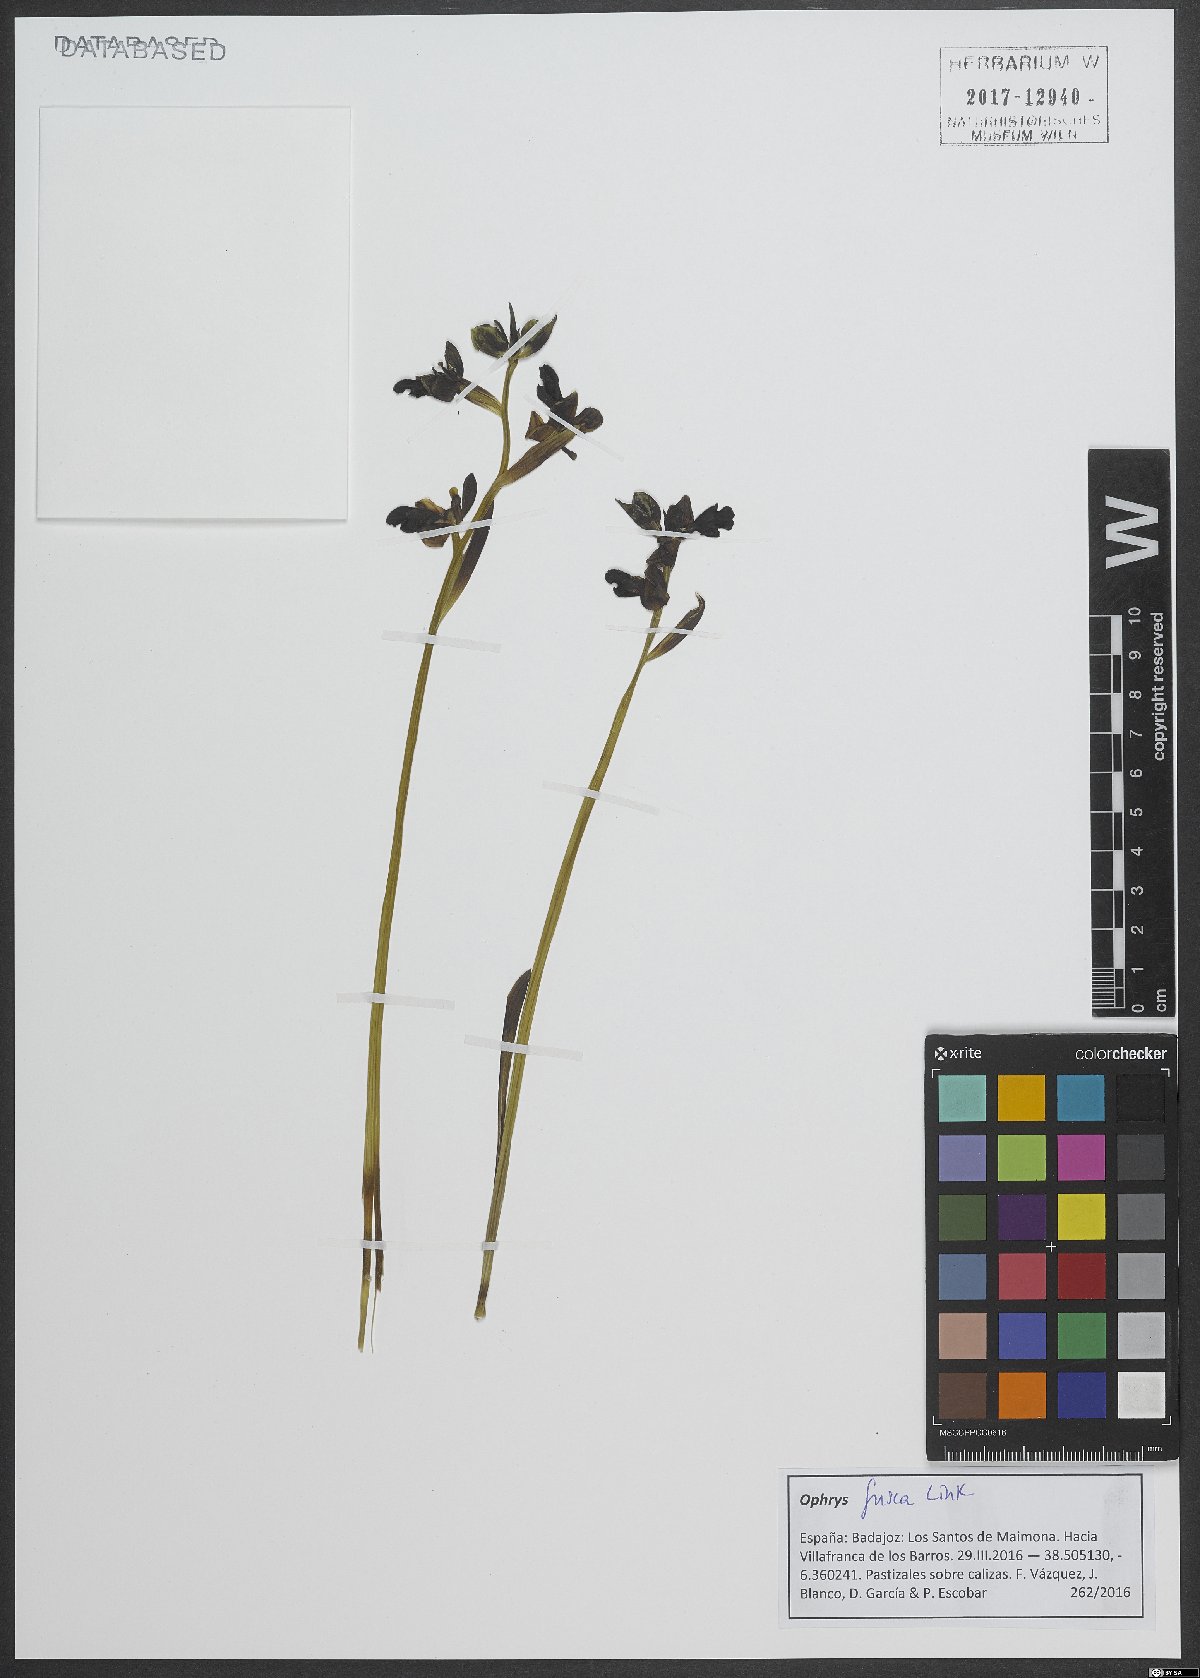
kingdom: Plantae
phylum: Tracheophyta
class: Liliopsida
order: Asparagales
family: Orchidaceae
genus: Ophrys
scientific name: Ophrys fusca
